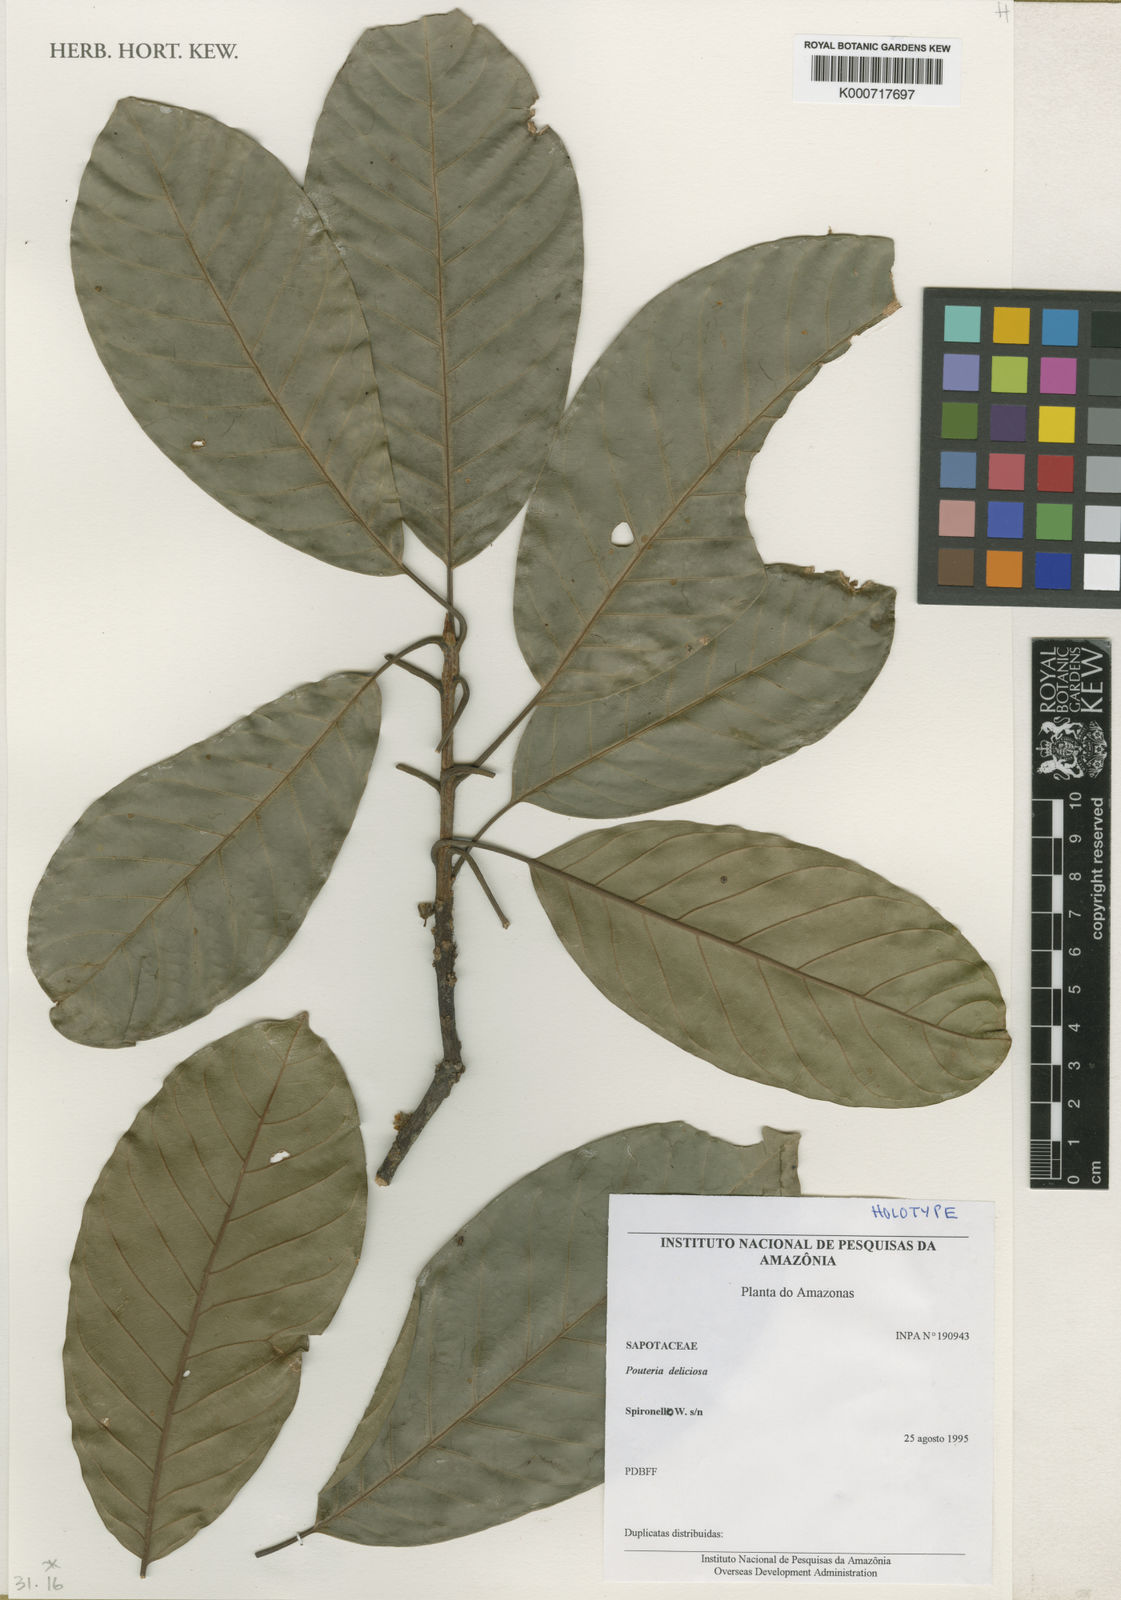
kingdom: Plantae
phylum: Tracheophyta
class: Magnoliopsida
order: Ericales
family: Sapotaceae
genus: Pouteria
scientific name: Pouteria deliciosa
